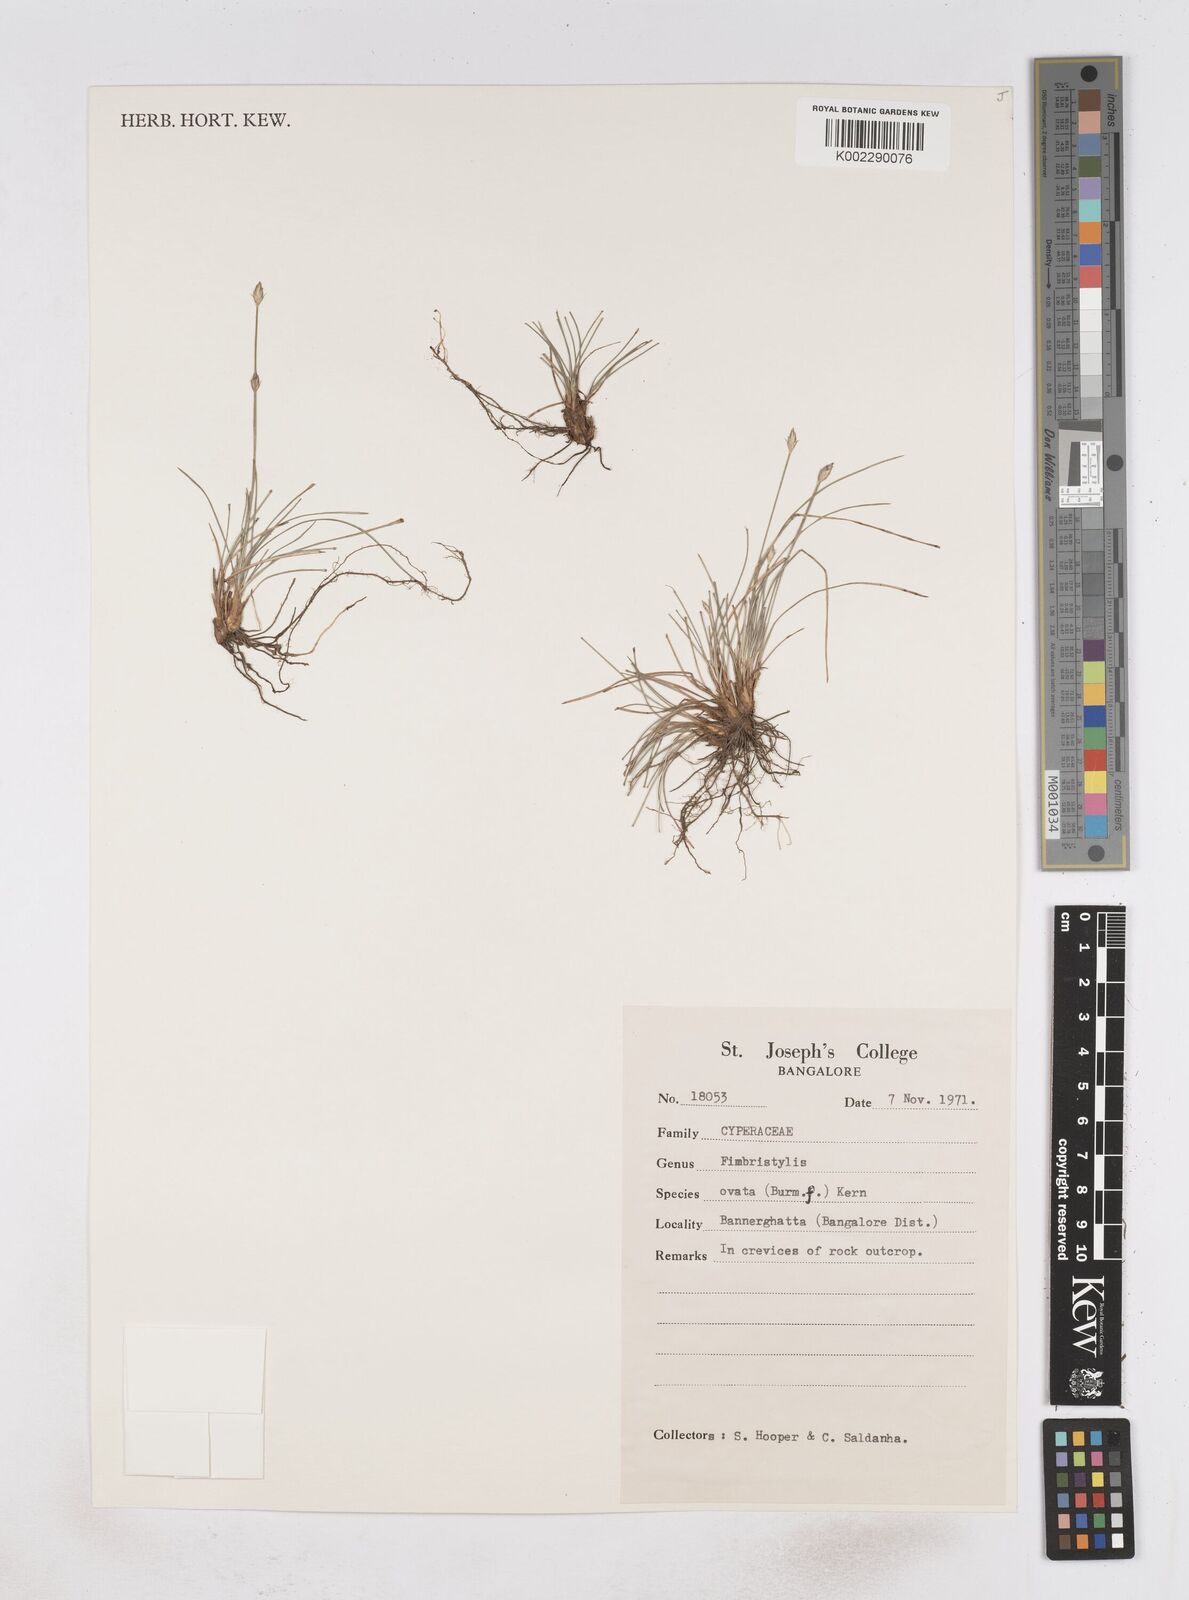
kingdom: Plantae
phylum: Tracheophyta
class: Liliopsida
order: Poales
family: Cyperaceae
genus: Abildgaardia
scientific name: Abildgaardia ovata
